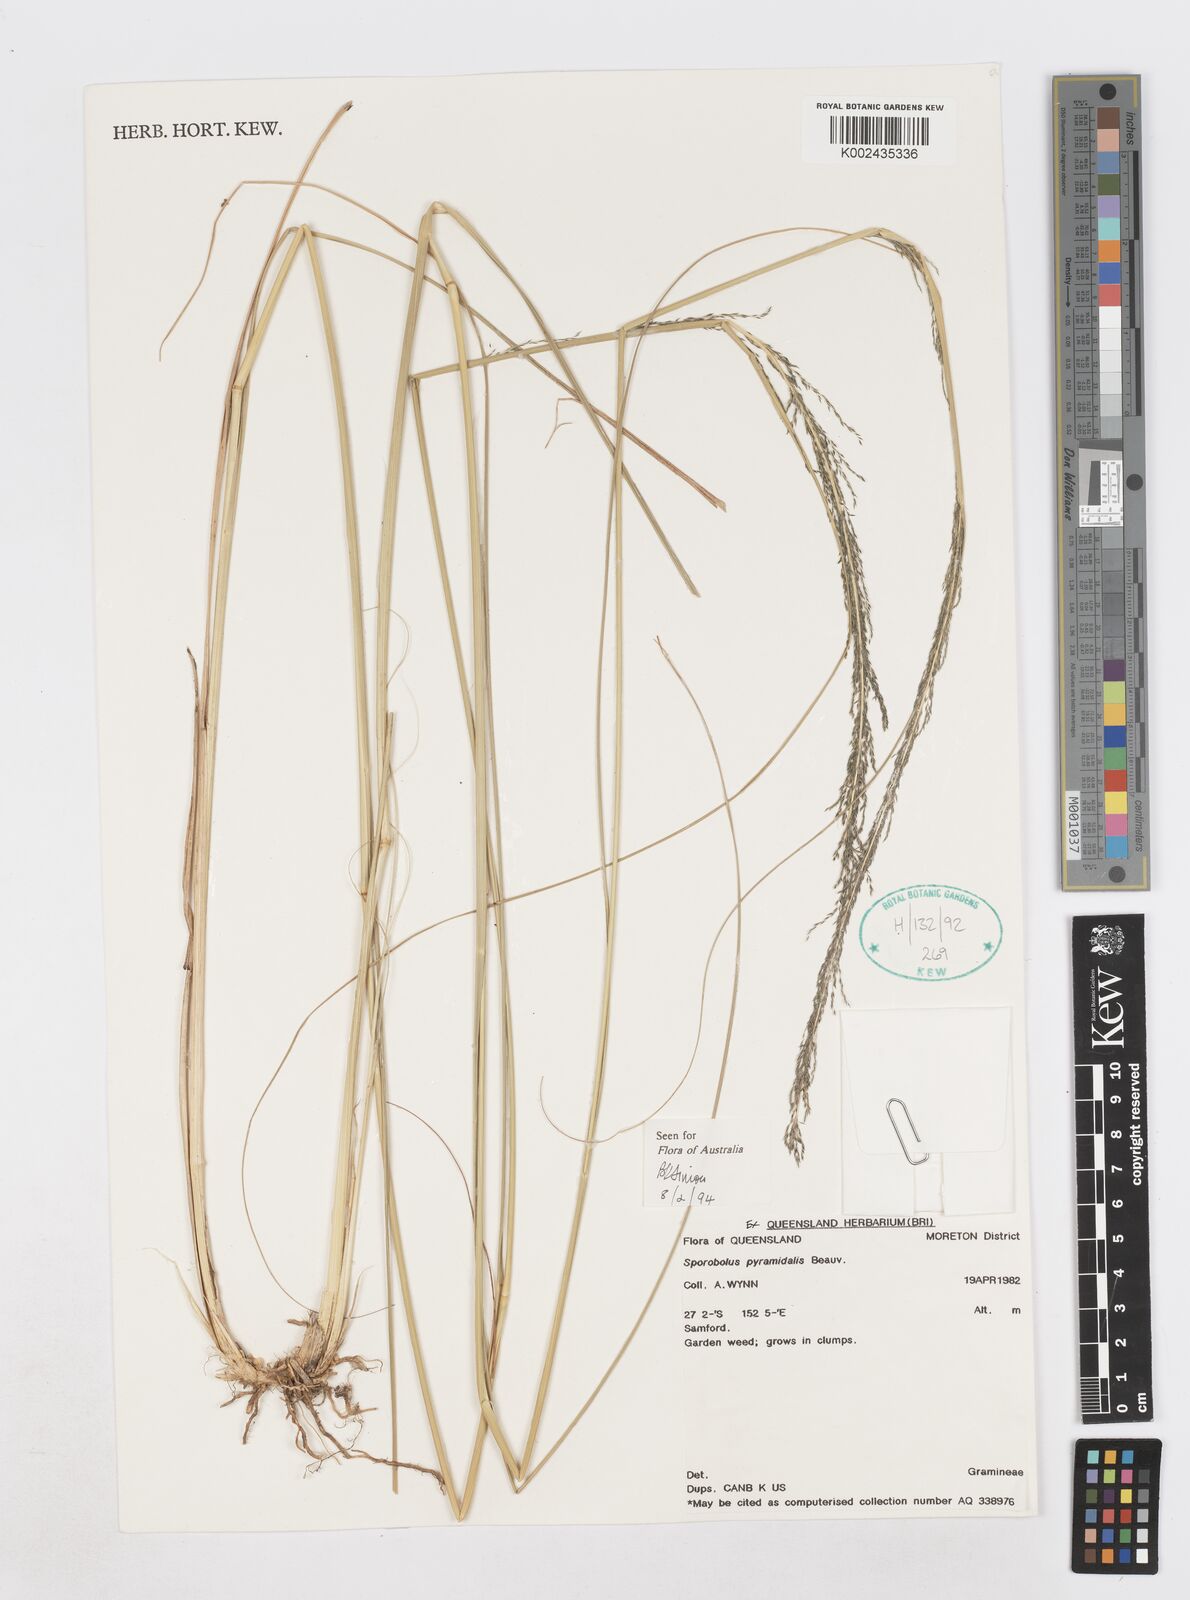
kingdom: Plantae
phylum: Tracheophyta
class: Liliopsida
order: Poales
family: Poaceae
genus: Sporobolus
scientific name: Sporobolus pyramidalis
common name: West indian dropseed
